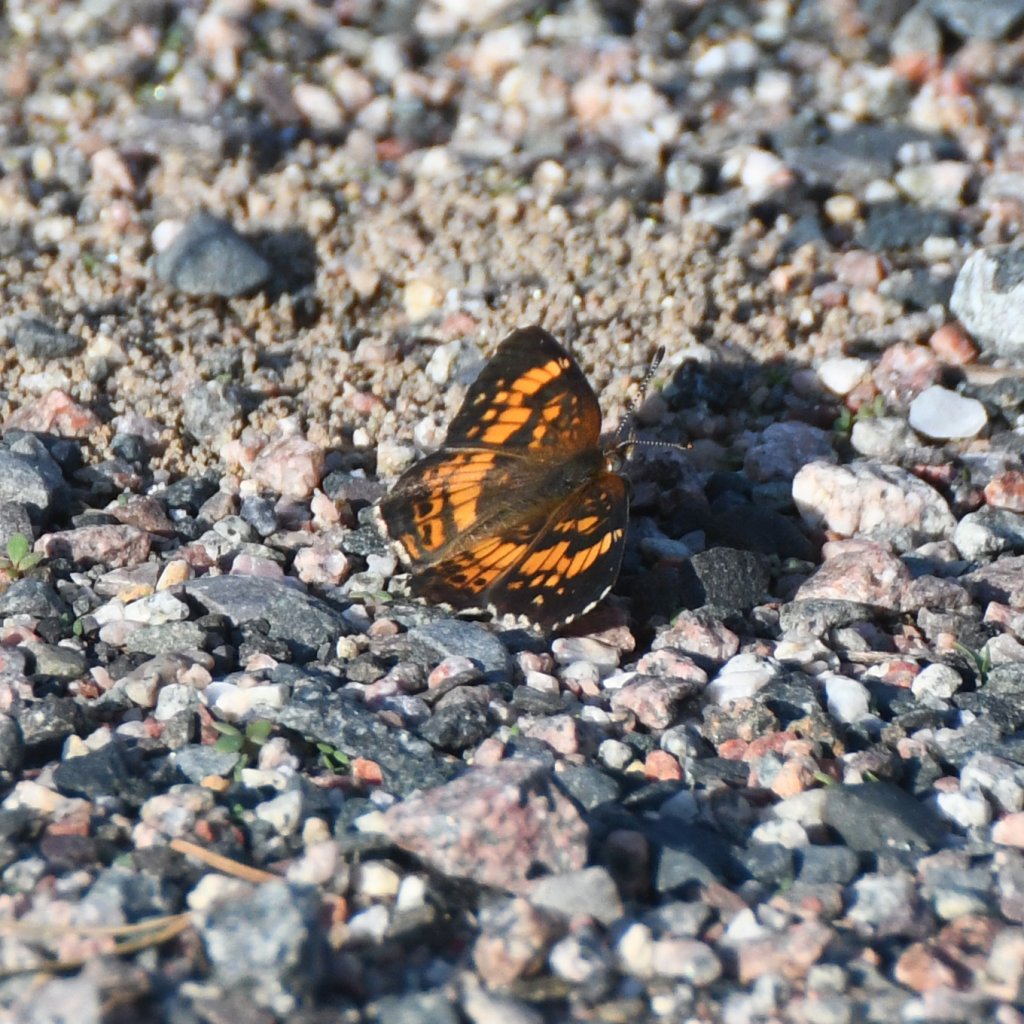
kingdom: Animalia
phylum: Arthropoda
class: Insecta
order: Lepidoptera
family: Nymphalidae
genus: Chlosyne
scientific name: Chlosyne nycteis
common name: Silvery Checkerspot
